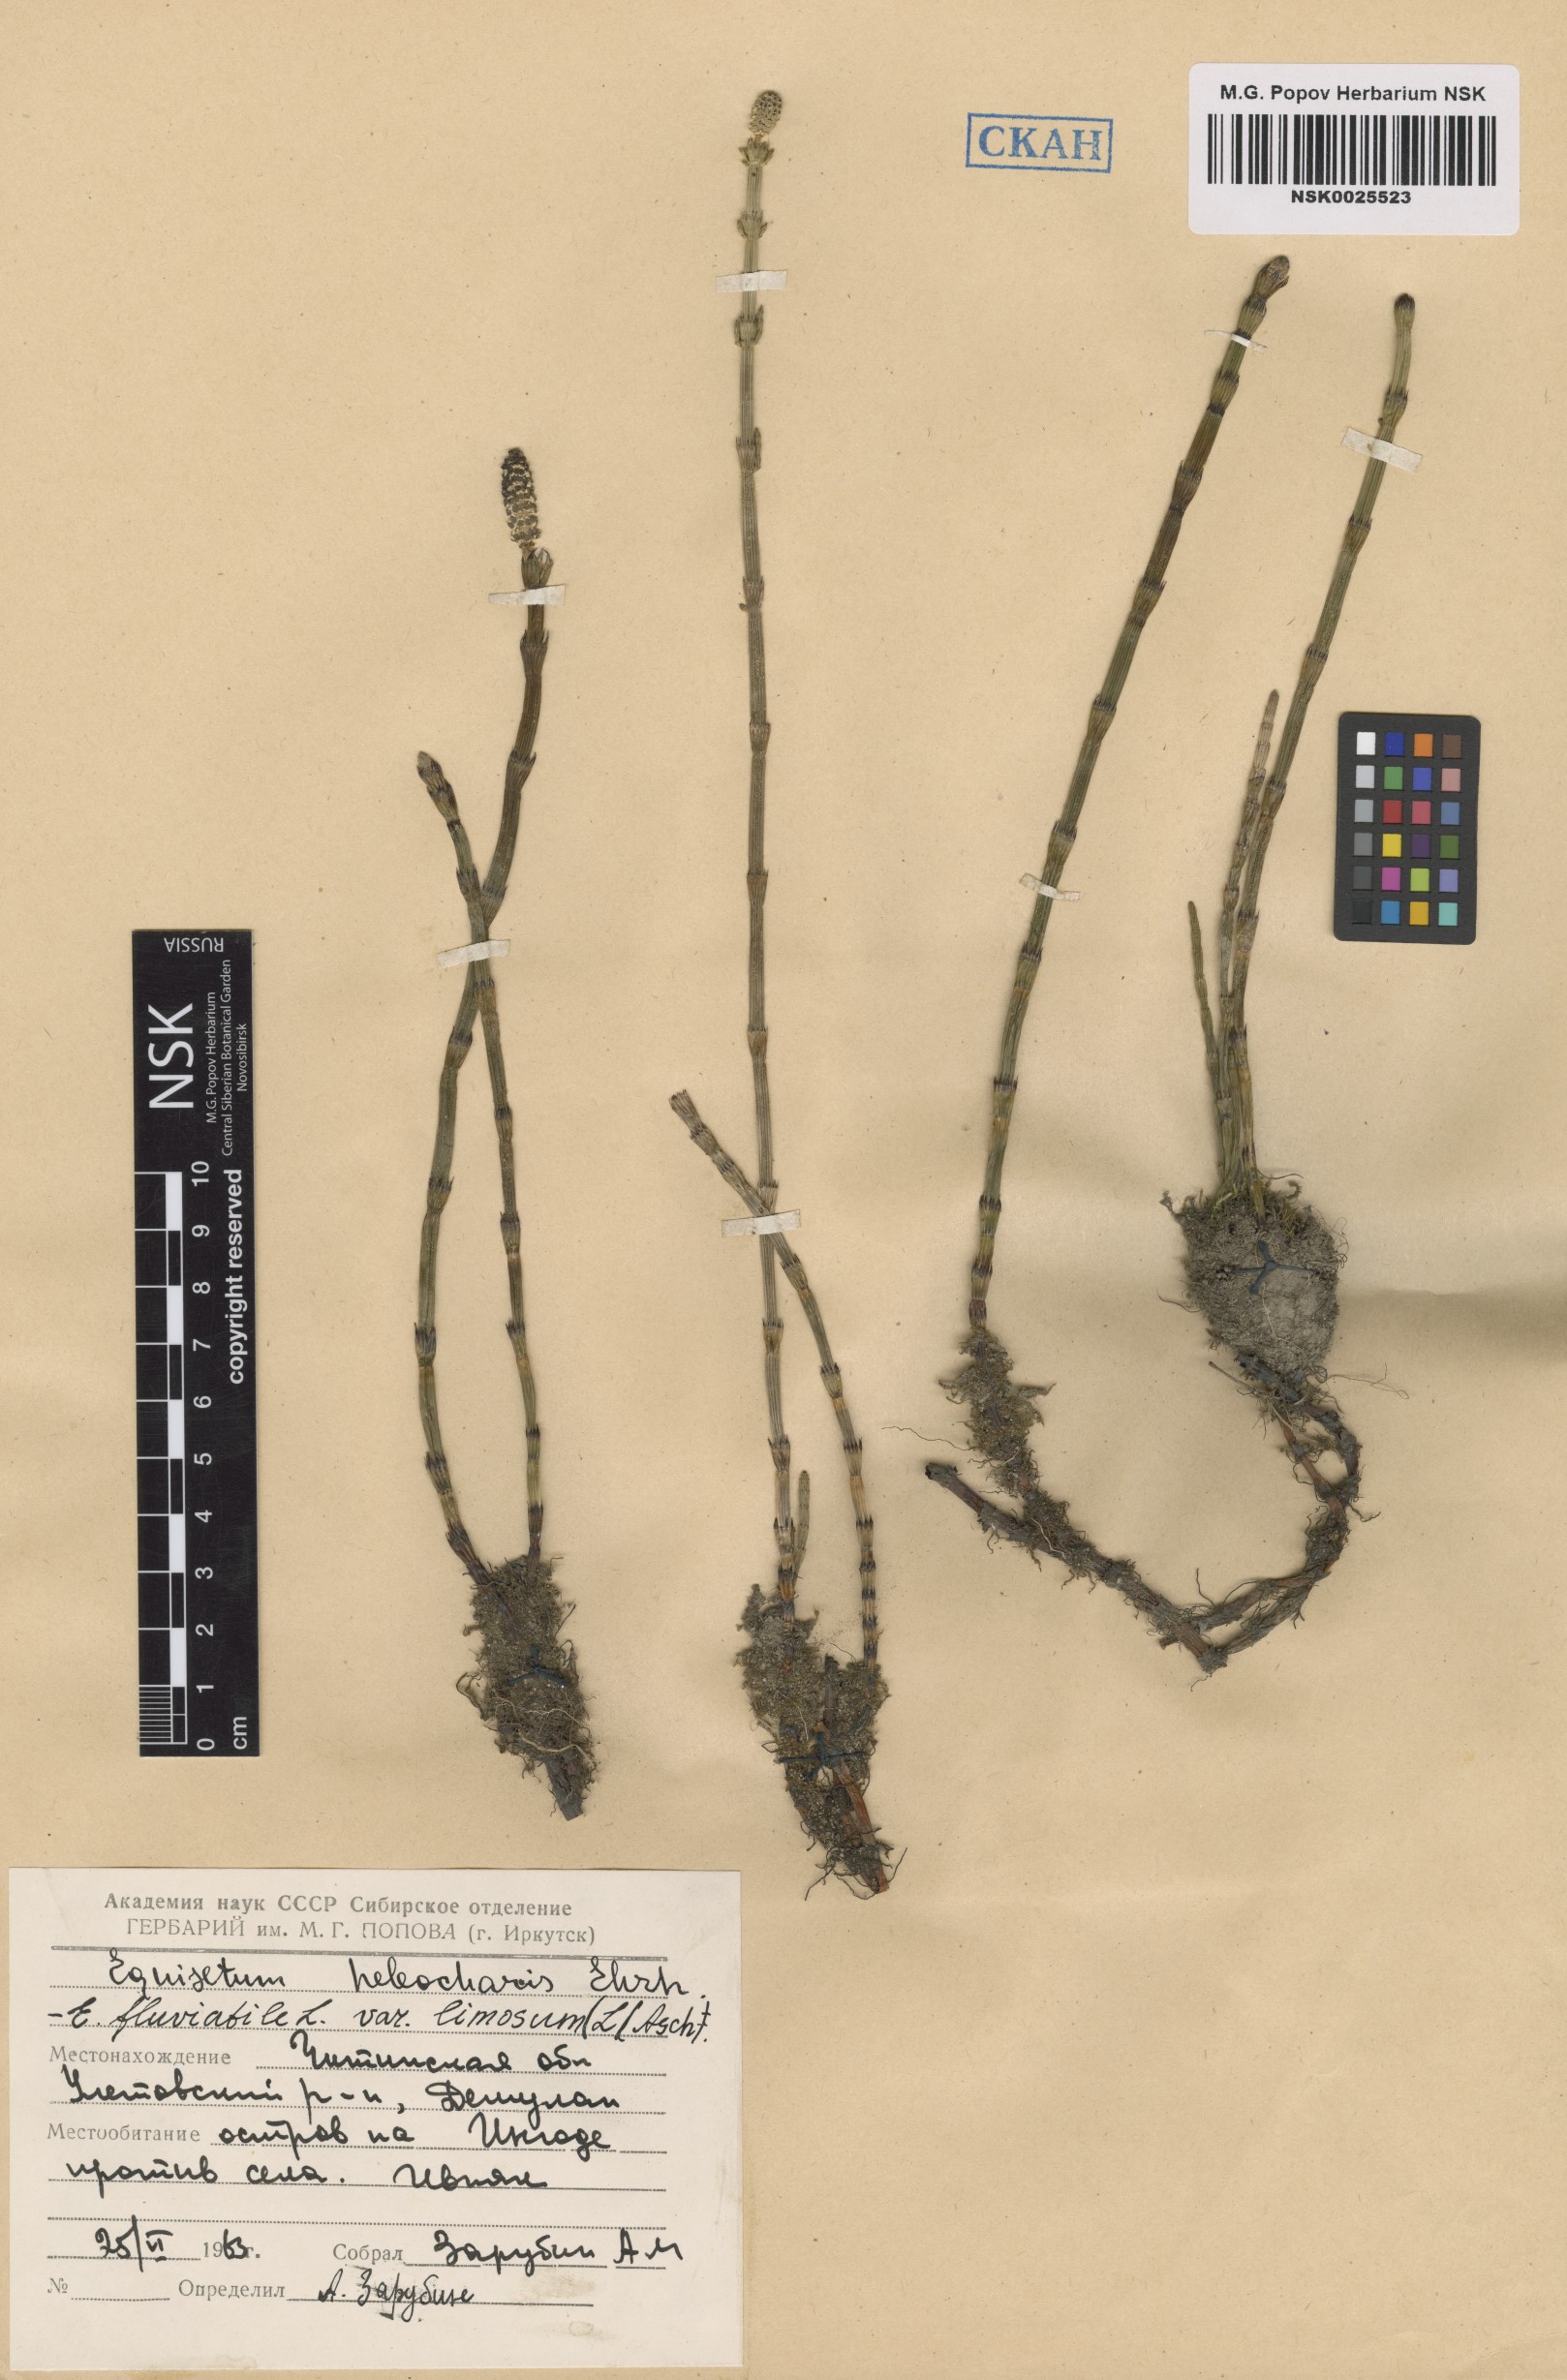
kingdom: Plantae
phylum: Tracheophyta
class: Polypodiopsida
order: Equisetales
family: Equisetaceae
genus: Equisetum
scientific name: Equisetum fluviatile
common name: Water horsetail
